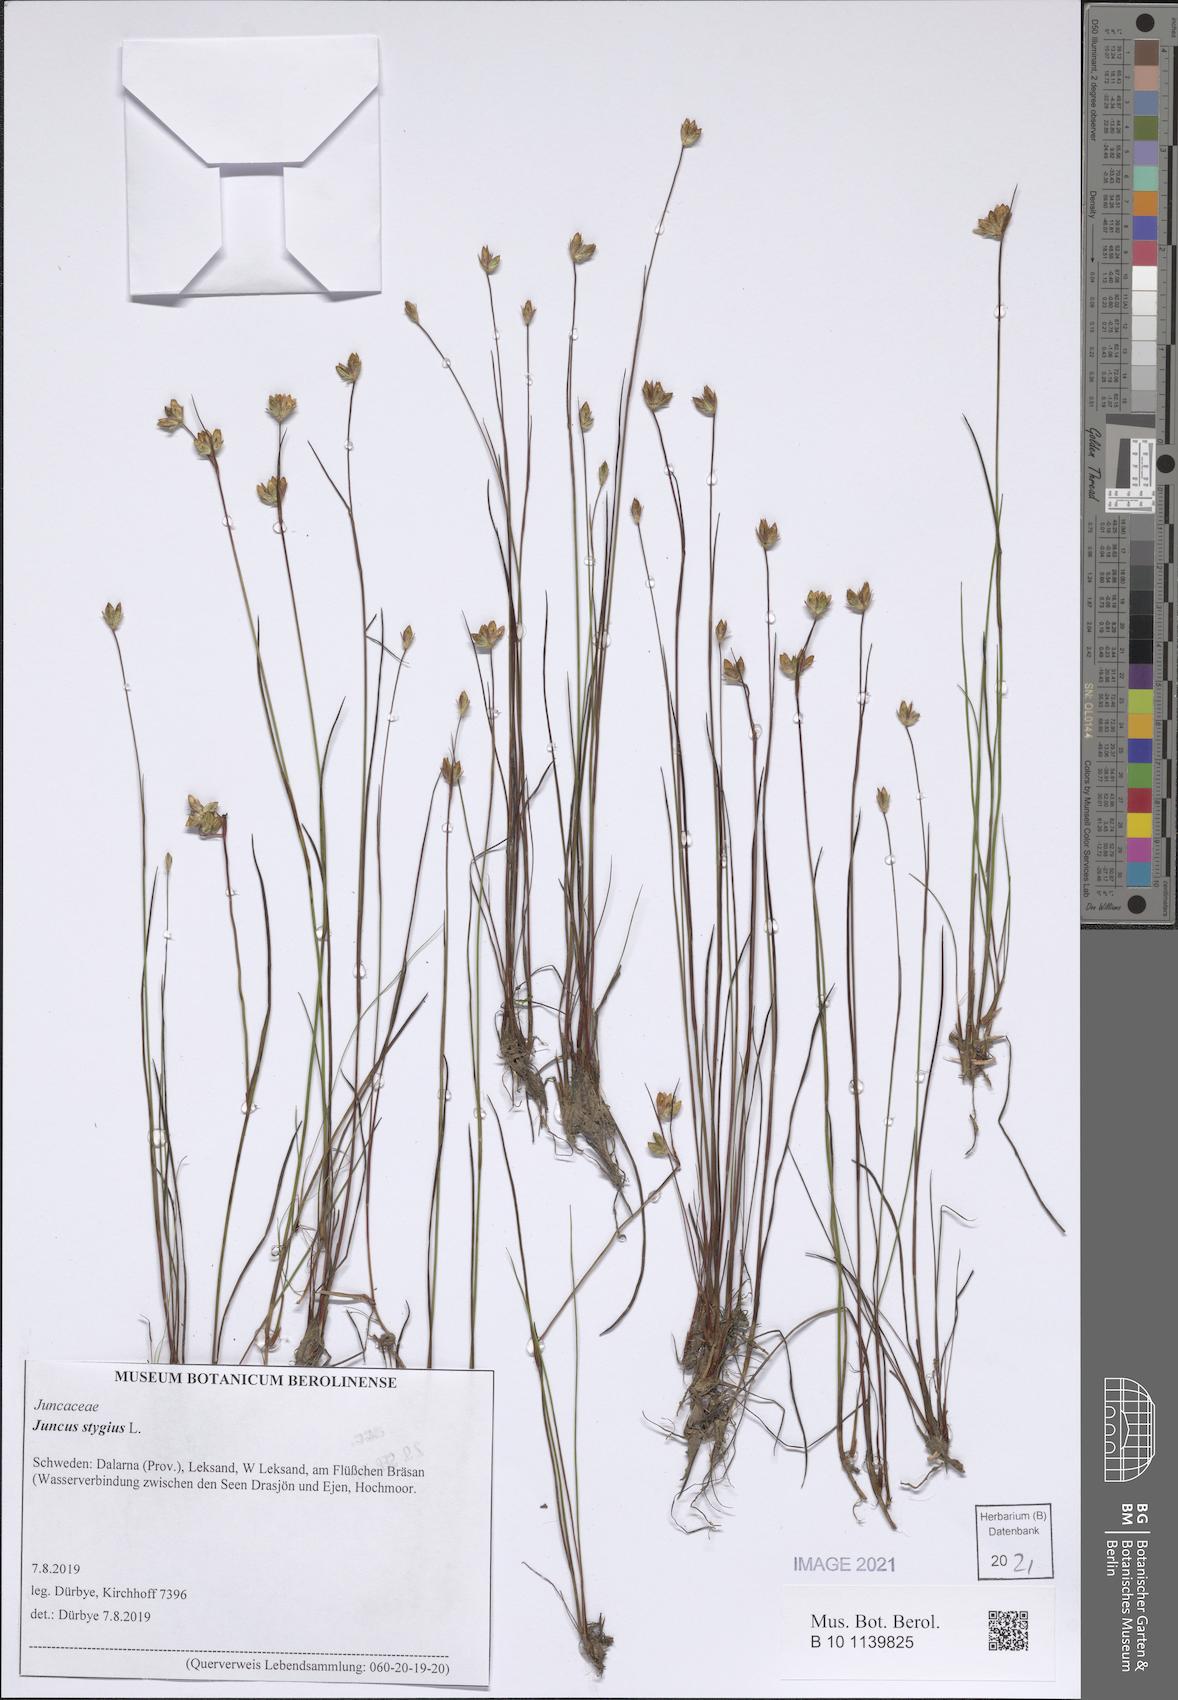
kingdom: Plantae
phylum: Tracheophyta
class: Liliopsida
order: Poales
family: Juncaceae
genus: Juncus
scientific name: Juncus stygius
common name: Bog rush
